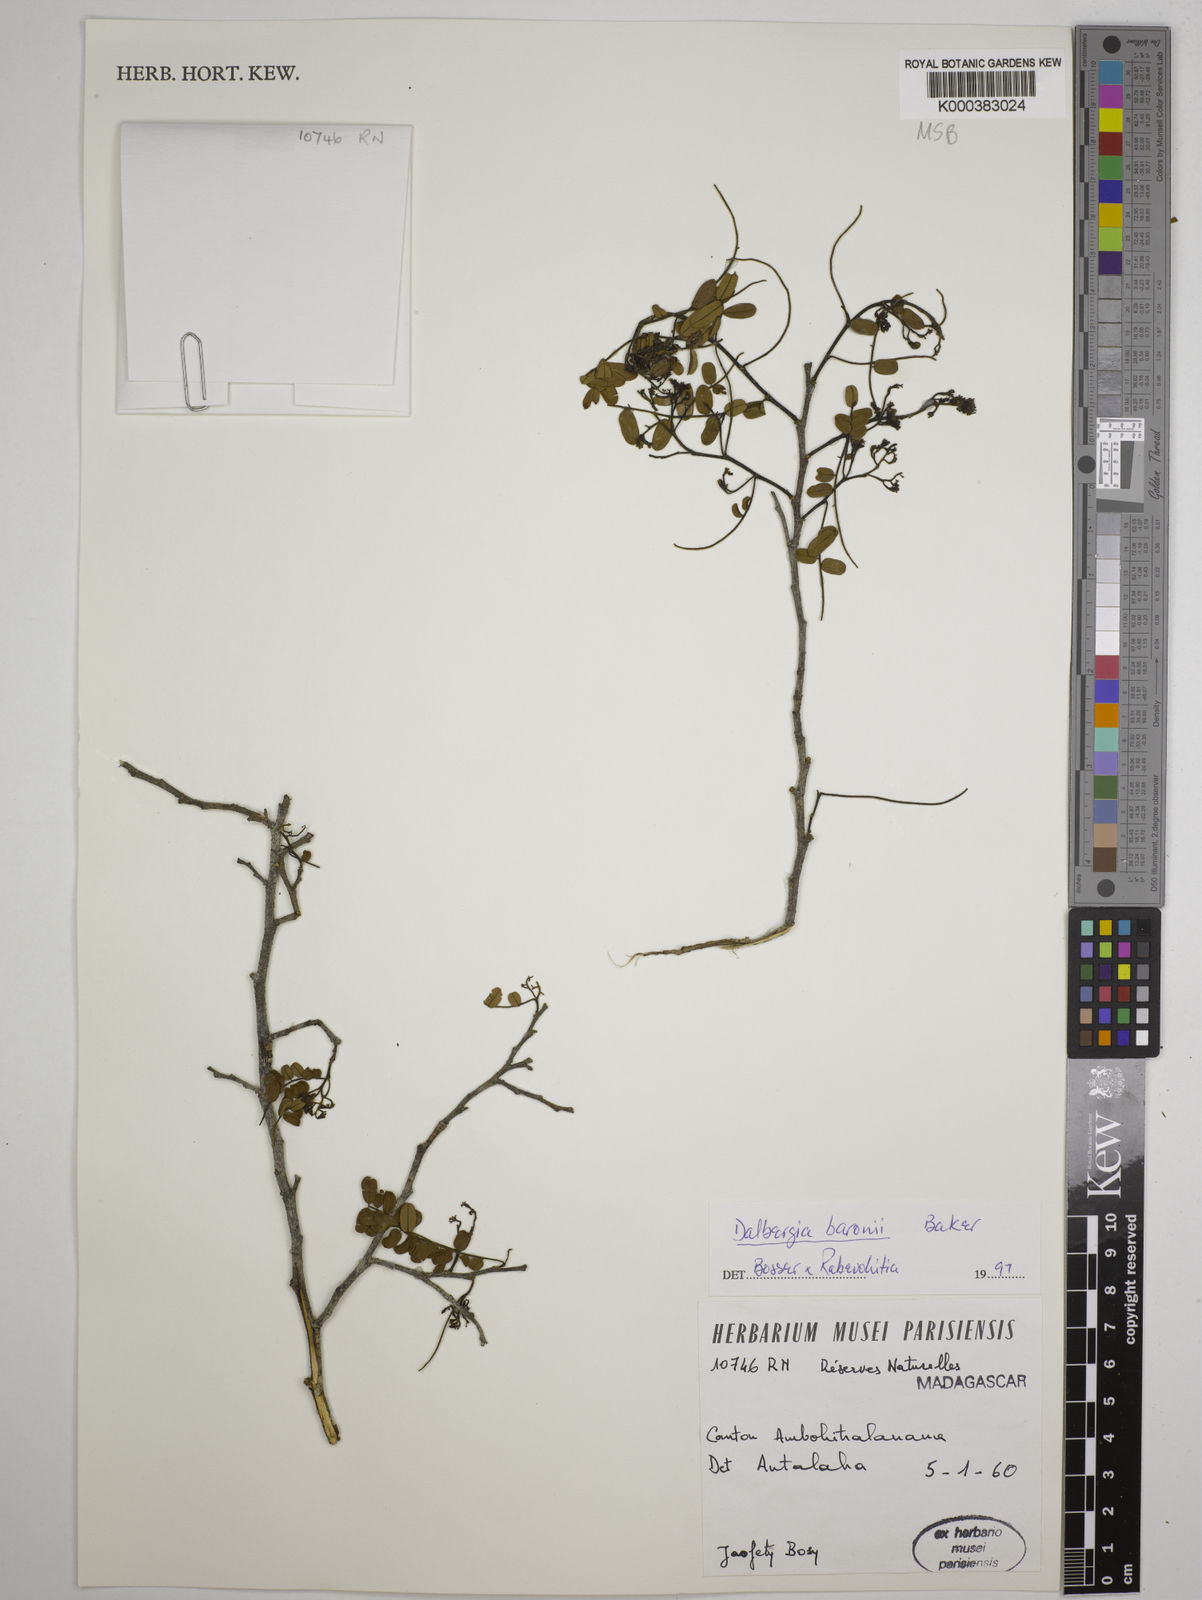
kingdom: Plantae
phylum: Tracheophyta
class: Magnoliopsida
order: Fabales
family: Fabaceae
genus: Dalbergia
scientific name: Dalbergia baronii
